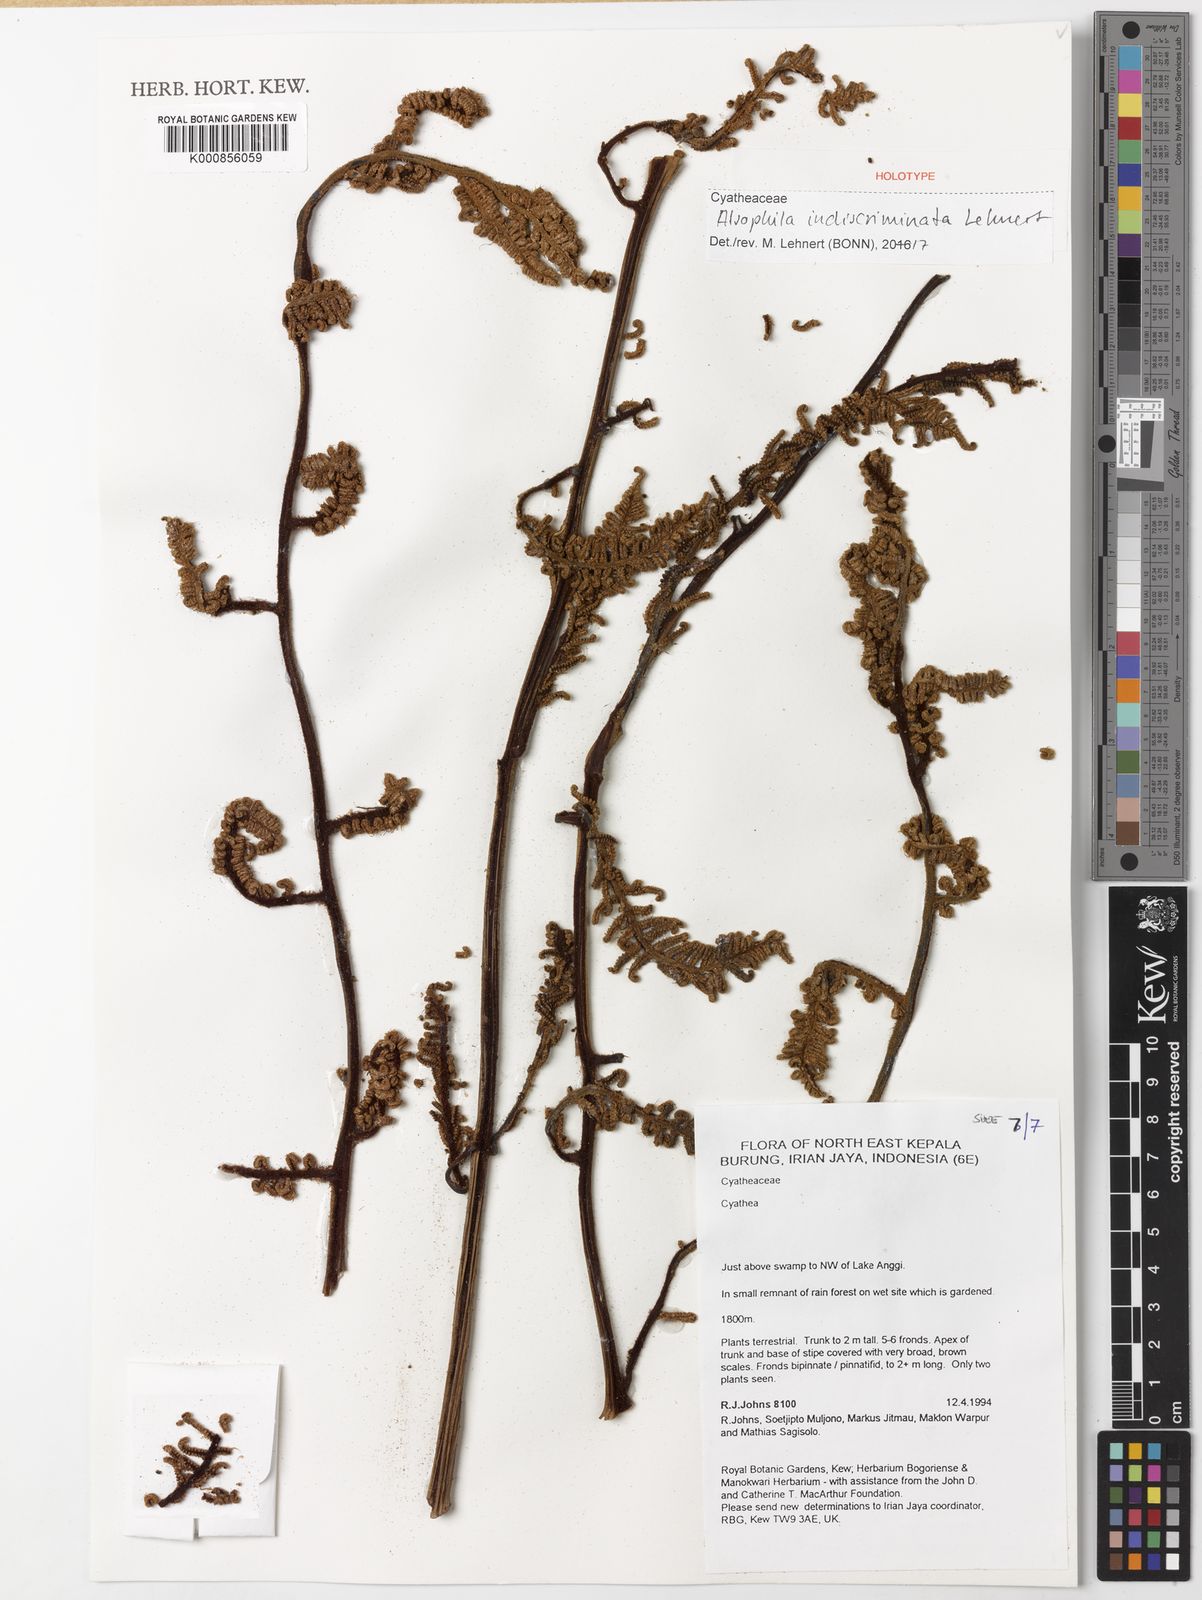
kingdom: Plantae
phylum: Tracheophyta
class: Polypodiopsida
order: Cyatheales
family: Cyatheaceae
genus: Alsophila
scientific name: Alsophila indiscriminata
